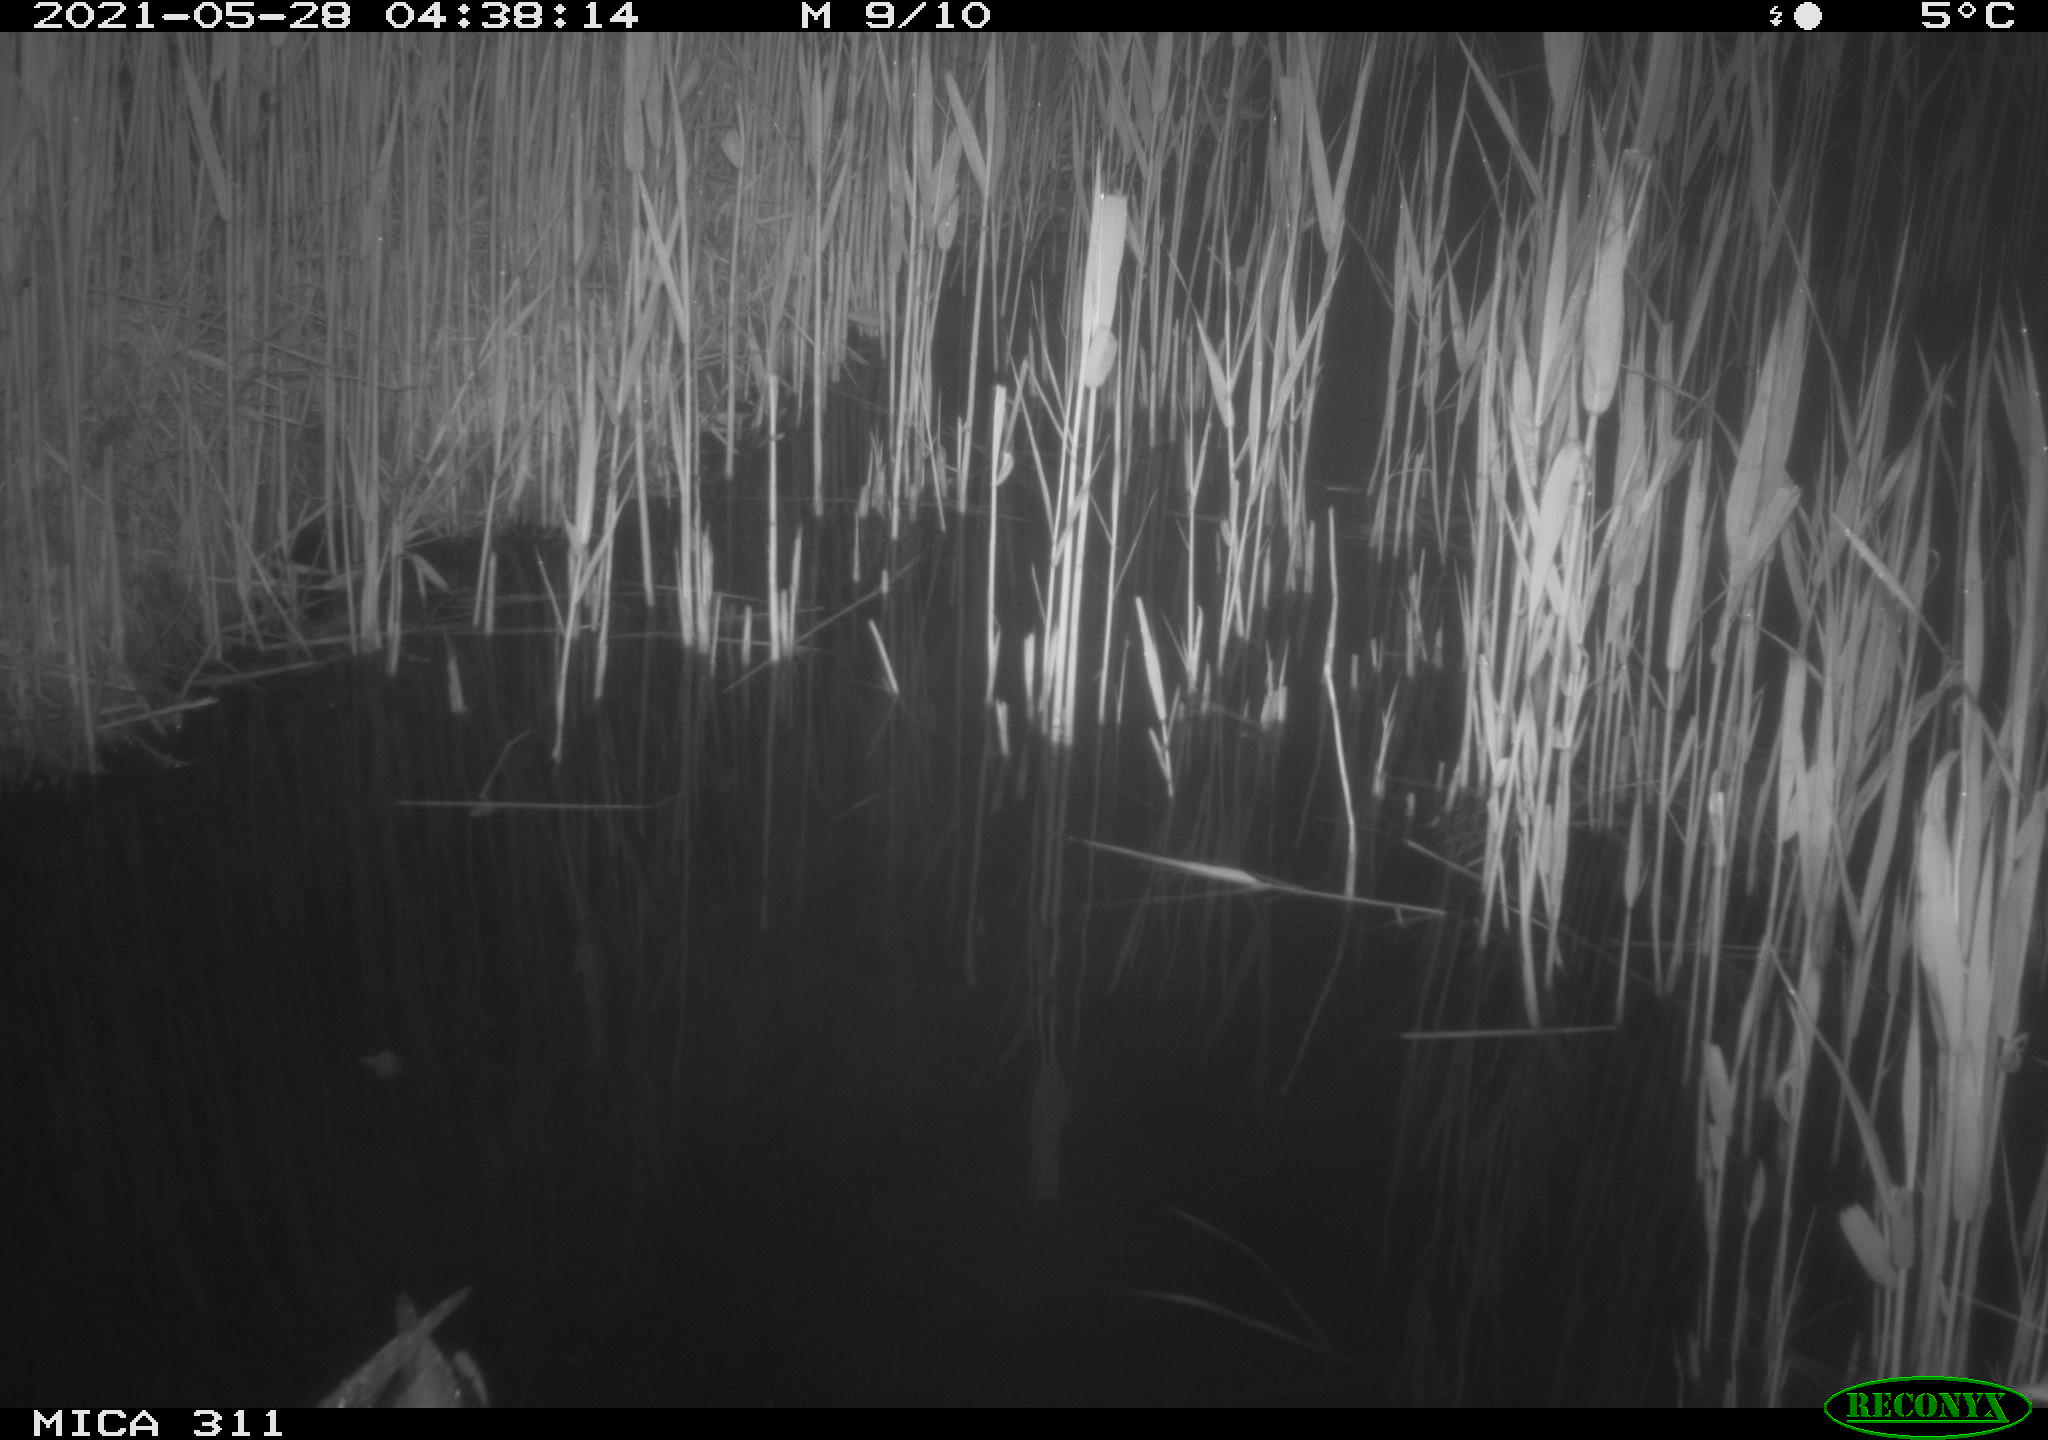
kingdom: Animalia
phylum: Chordata
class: Aves
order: Anseriformes
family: Anatidae
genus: Anas
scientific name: Anas
